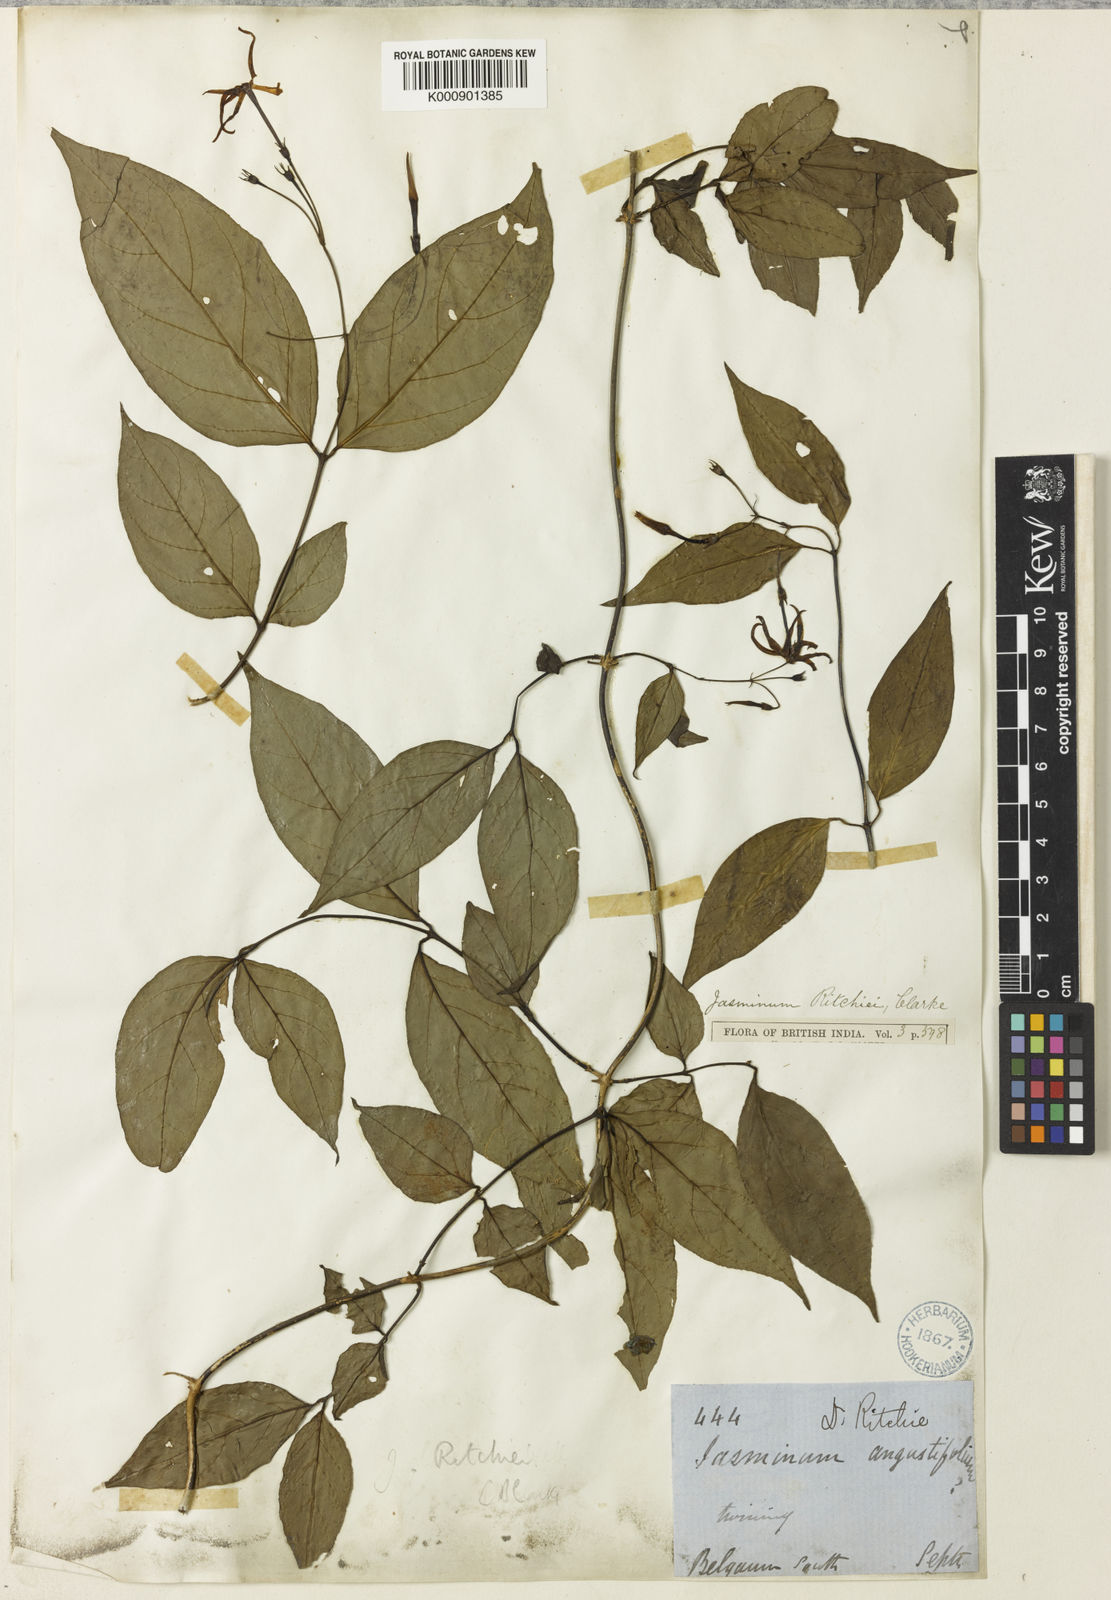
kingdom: Plantae
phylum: Tracheophyta
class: Magnoliopsida
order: Lamiales
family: Oleaceae
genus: Jasminum
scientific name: Jasminum ritchiei
